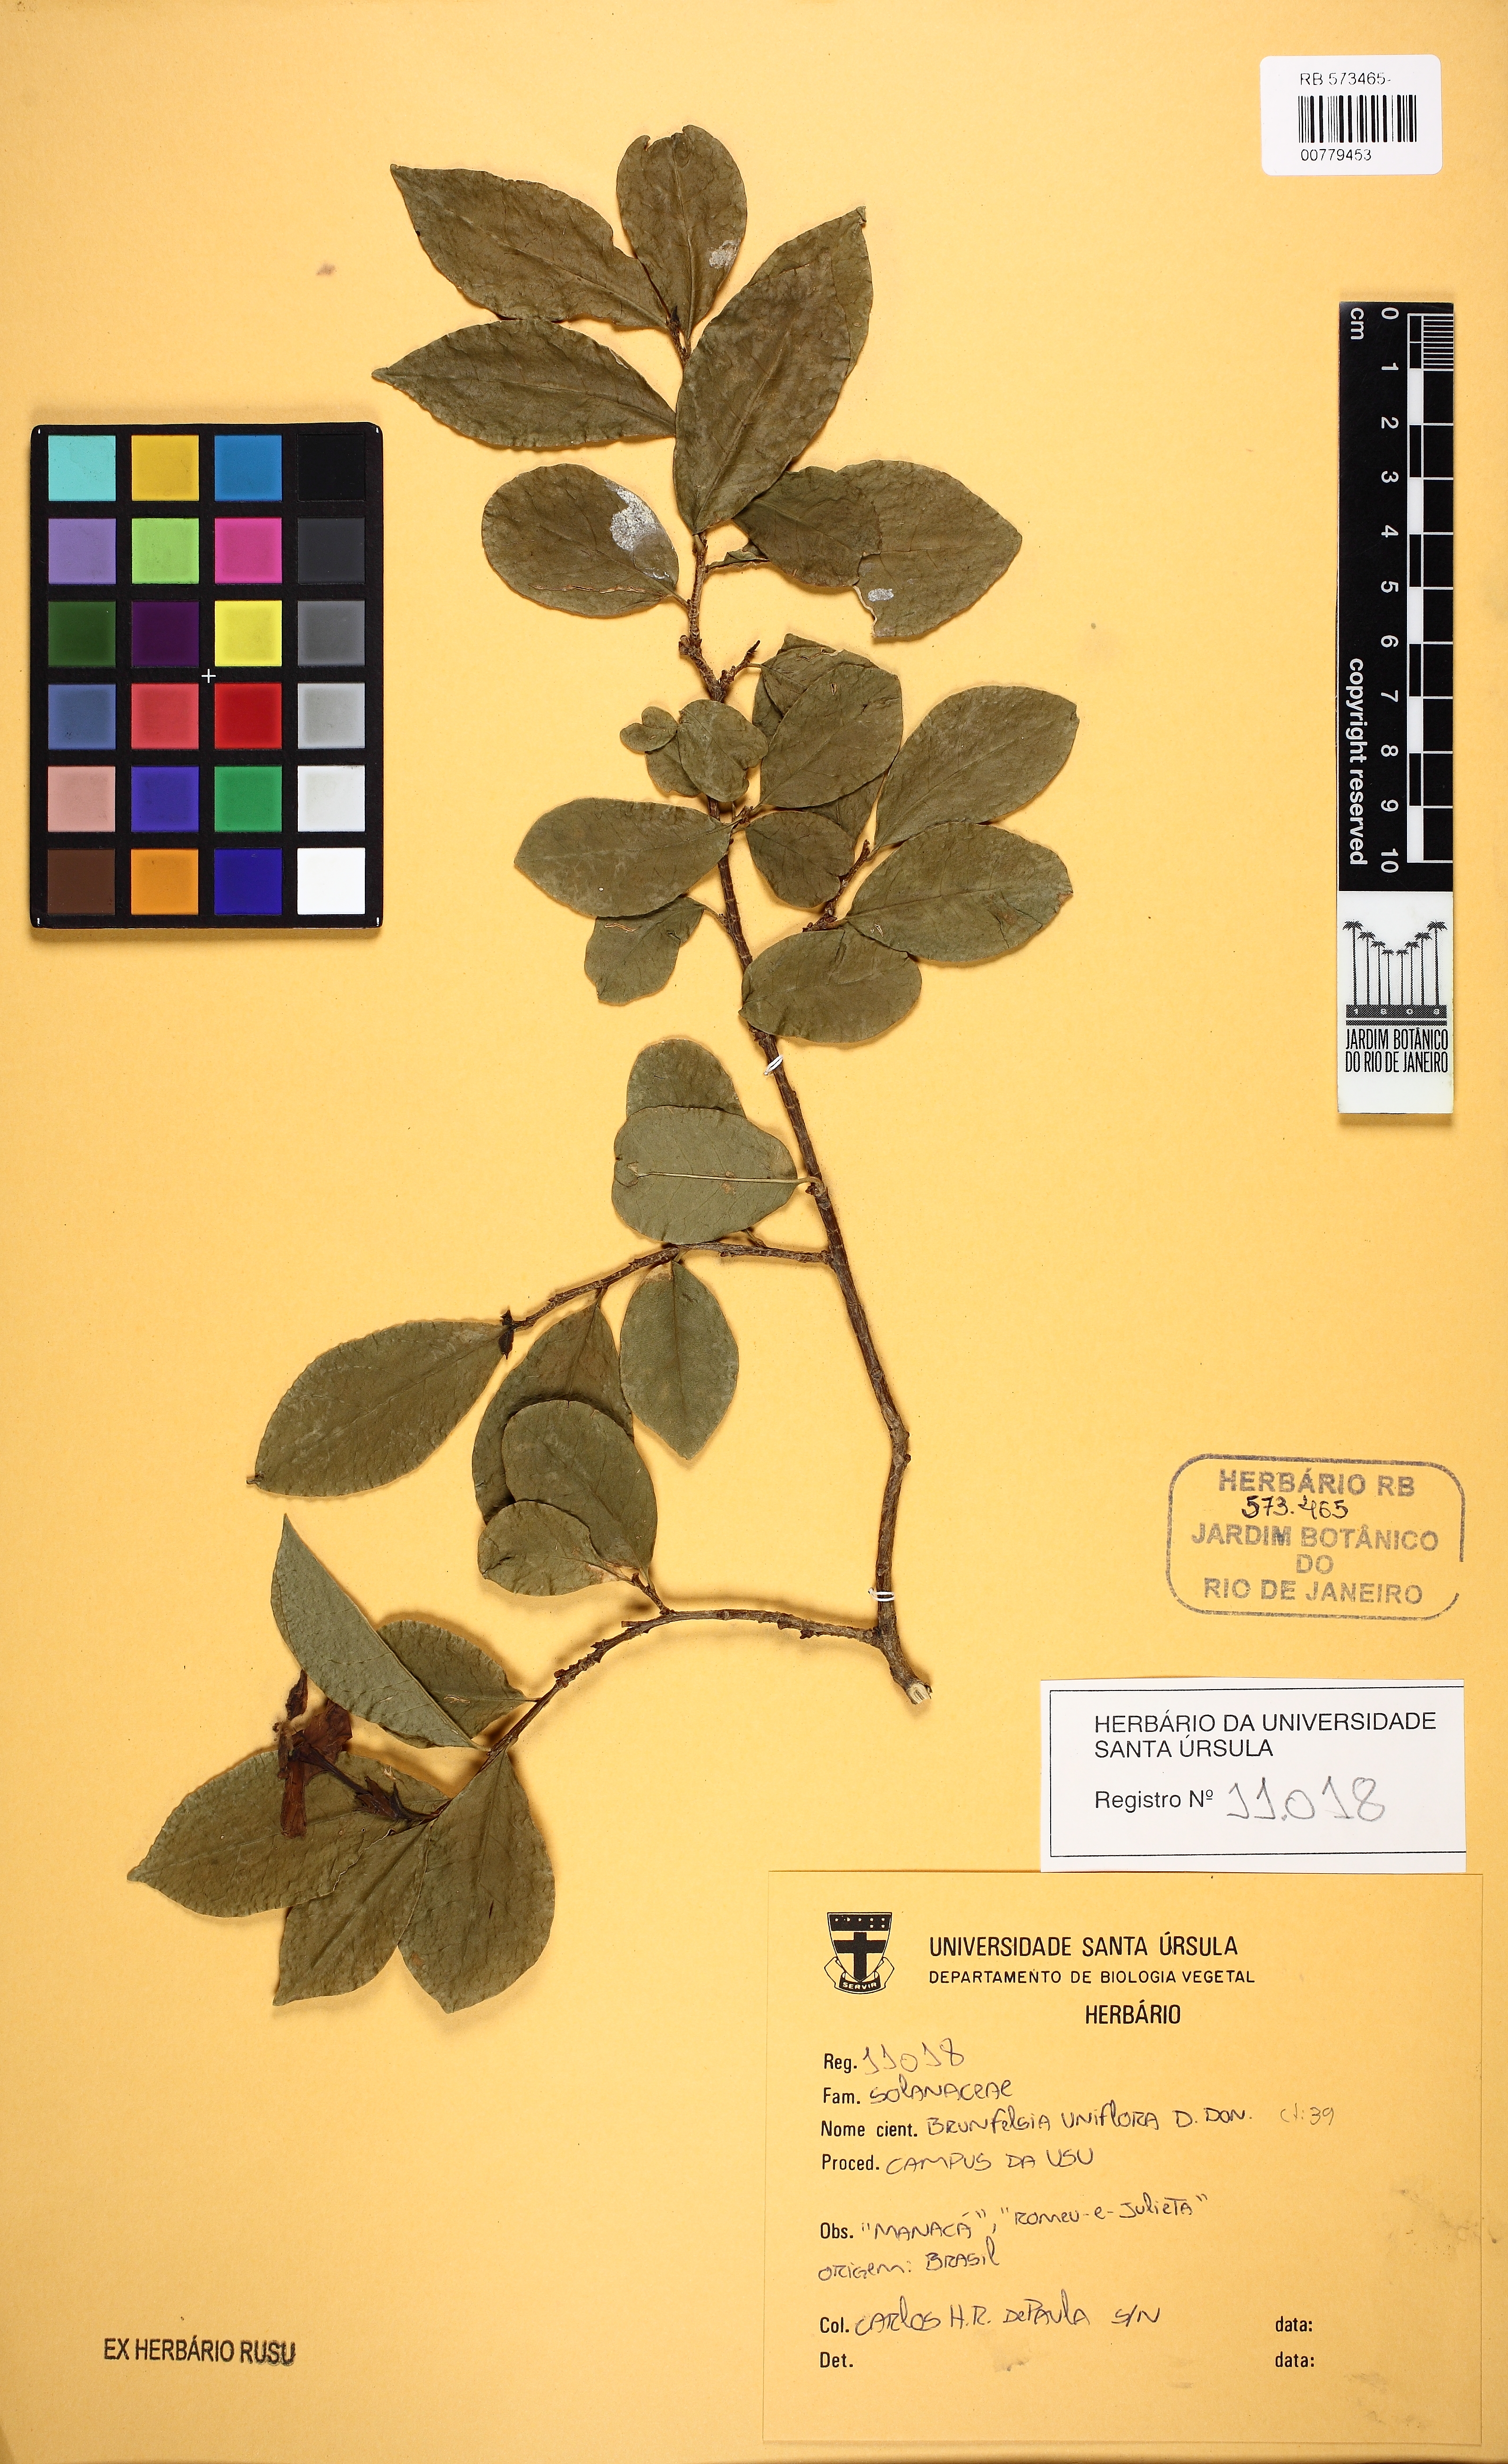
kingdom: Plantae
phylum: Tracheophyta
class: Magnoliopsida
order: Solanales
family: Solanaceae
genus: Brunfelsia
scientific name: Brunfelsia uniflora
